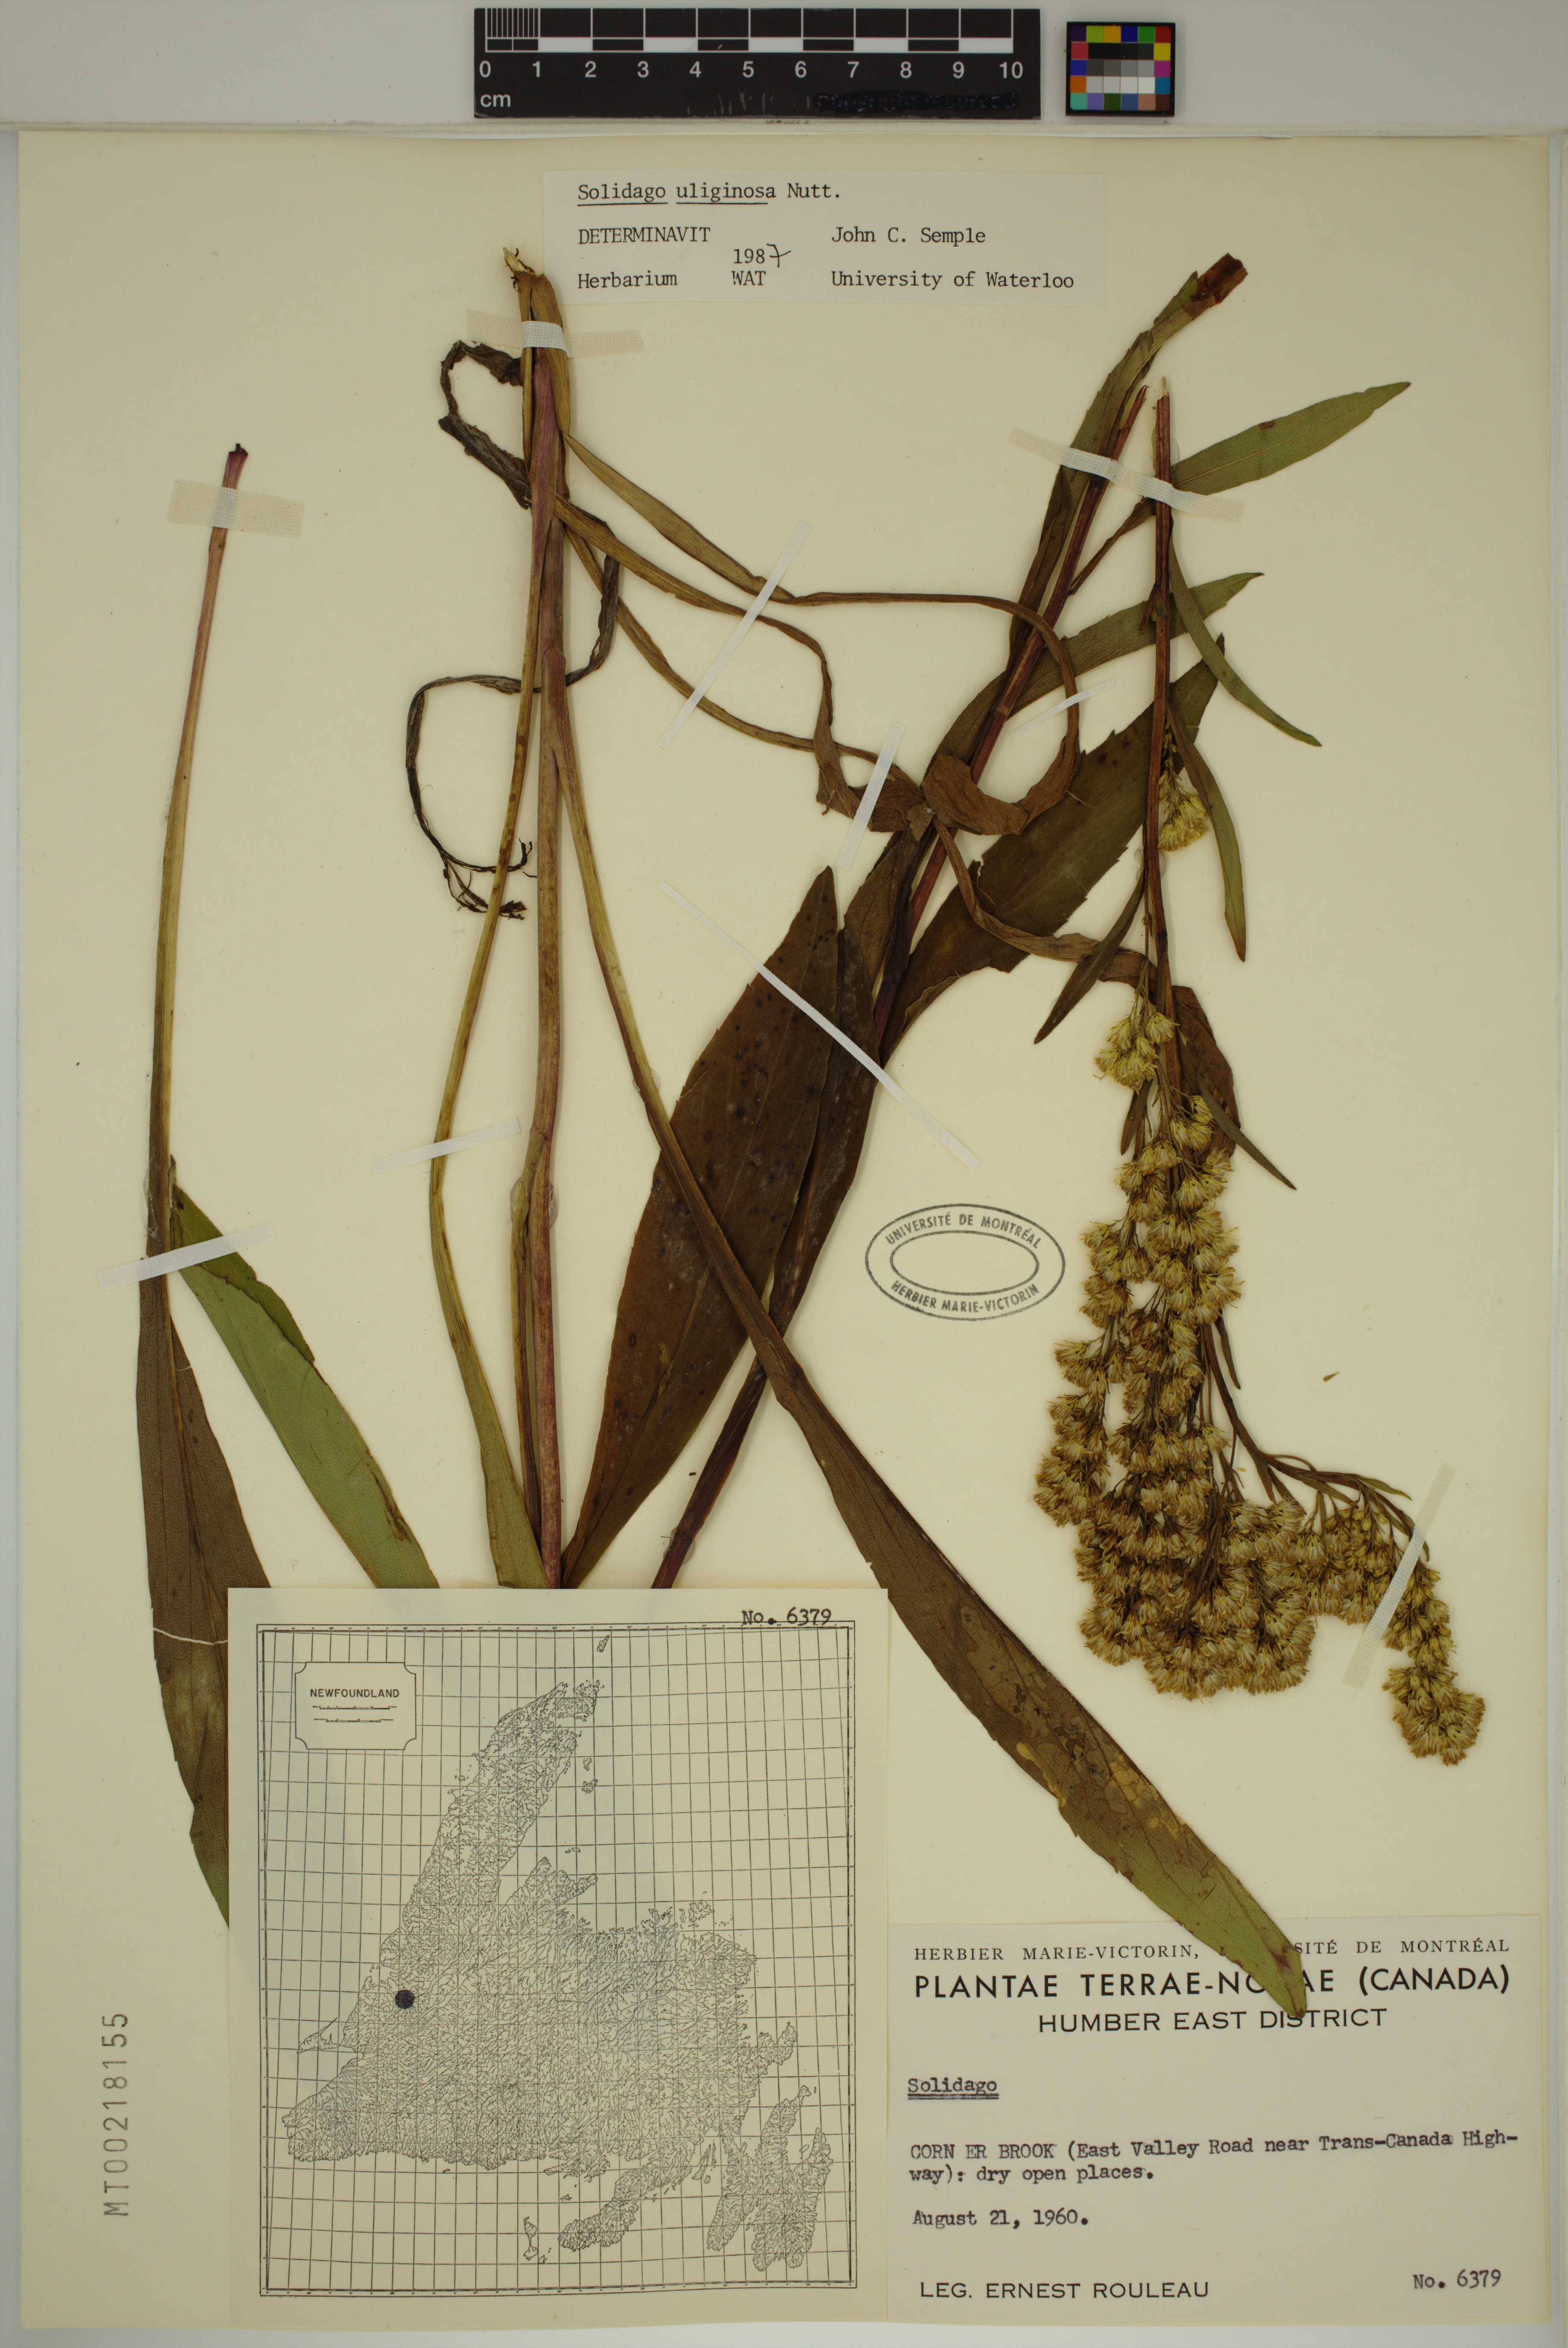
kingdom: Plantae
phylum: Tracheophyta
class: Magnoliopsida
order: Asterales
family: Asteraceae
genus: Solidago
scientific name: Solidago uliginosa
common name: Bog goldenrod
